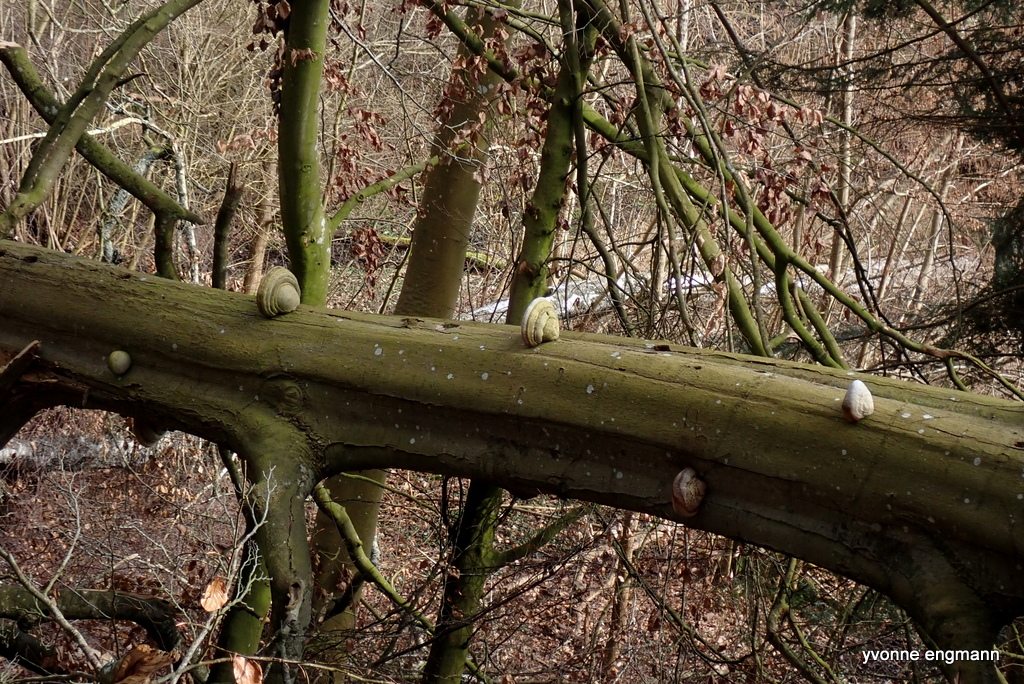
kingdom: Fungi
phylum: Basidiomycota
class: Agaricomycetes
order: Polyporales
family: Polyporaceae
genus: Fomes
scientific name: Fomes fomentarius
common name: tøndersvamp
